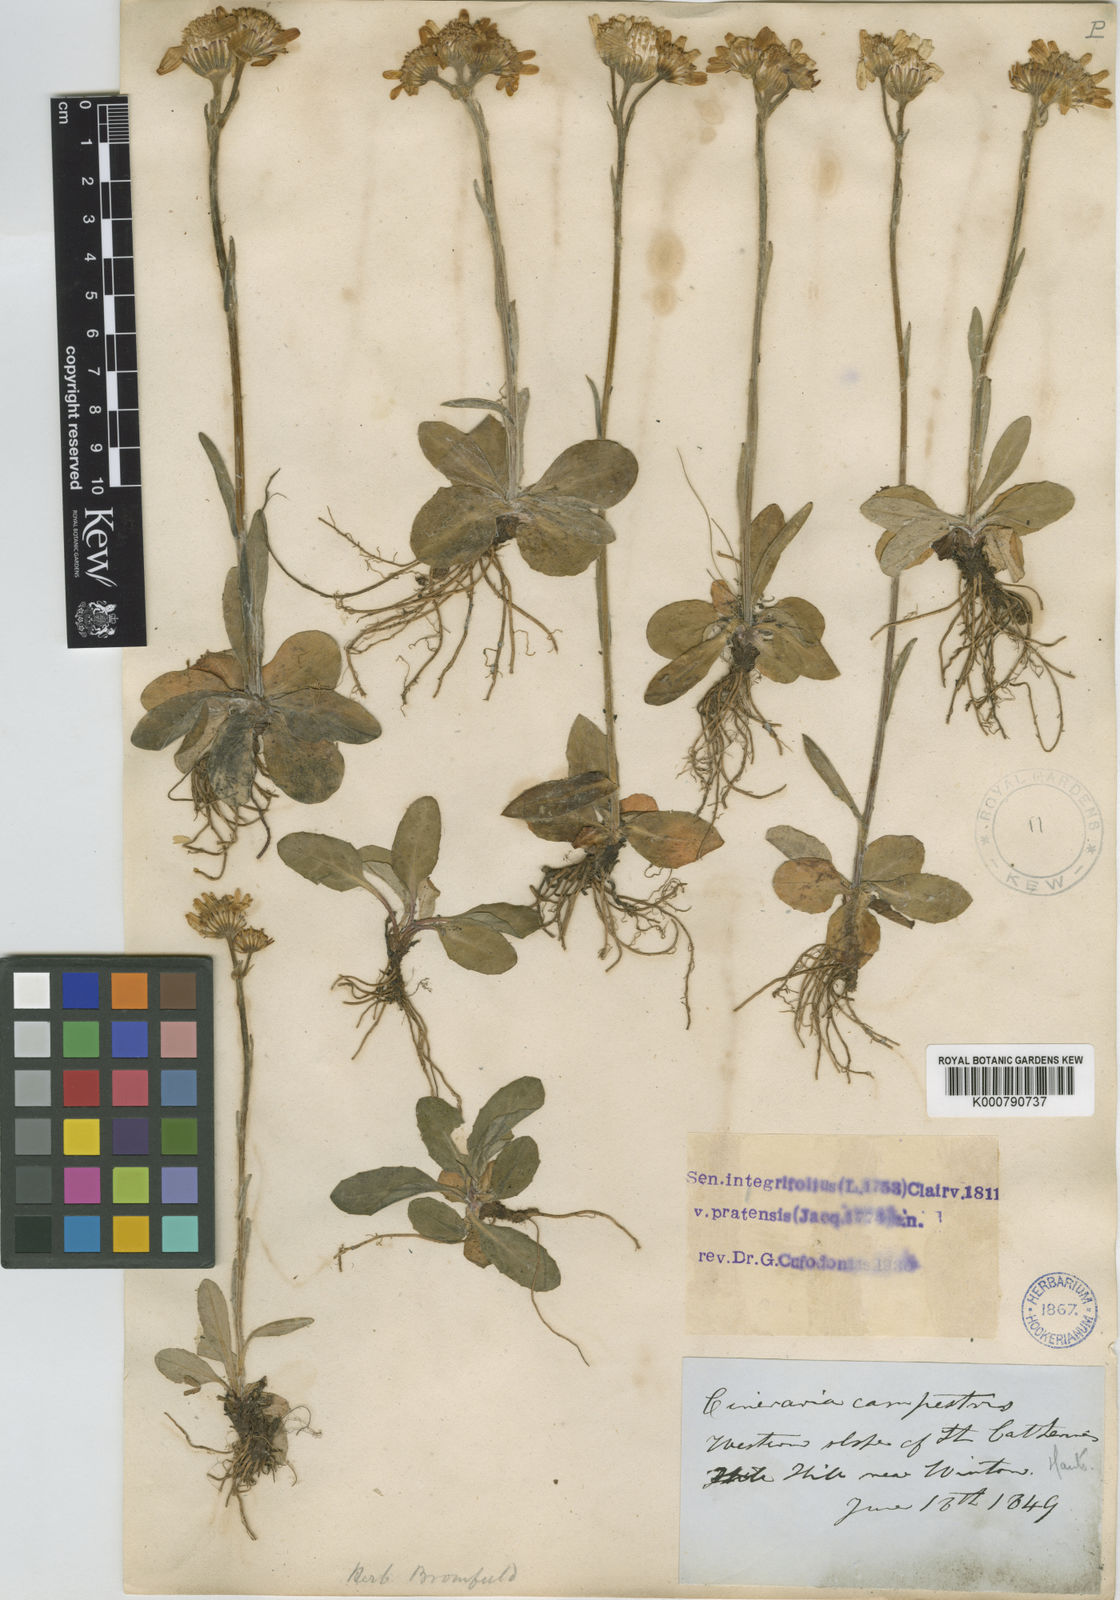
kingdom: Plantae
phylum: Tracheophyta
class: Magnoliopsida
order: Asterales
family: Asteraceae
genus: Tephroseris
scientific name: Tephroseris integrifolia
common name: Field fleawort
